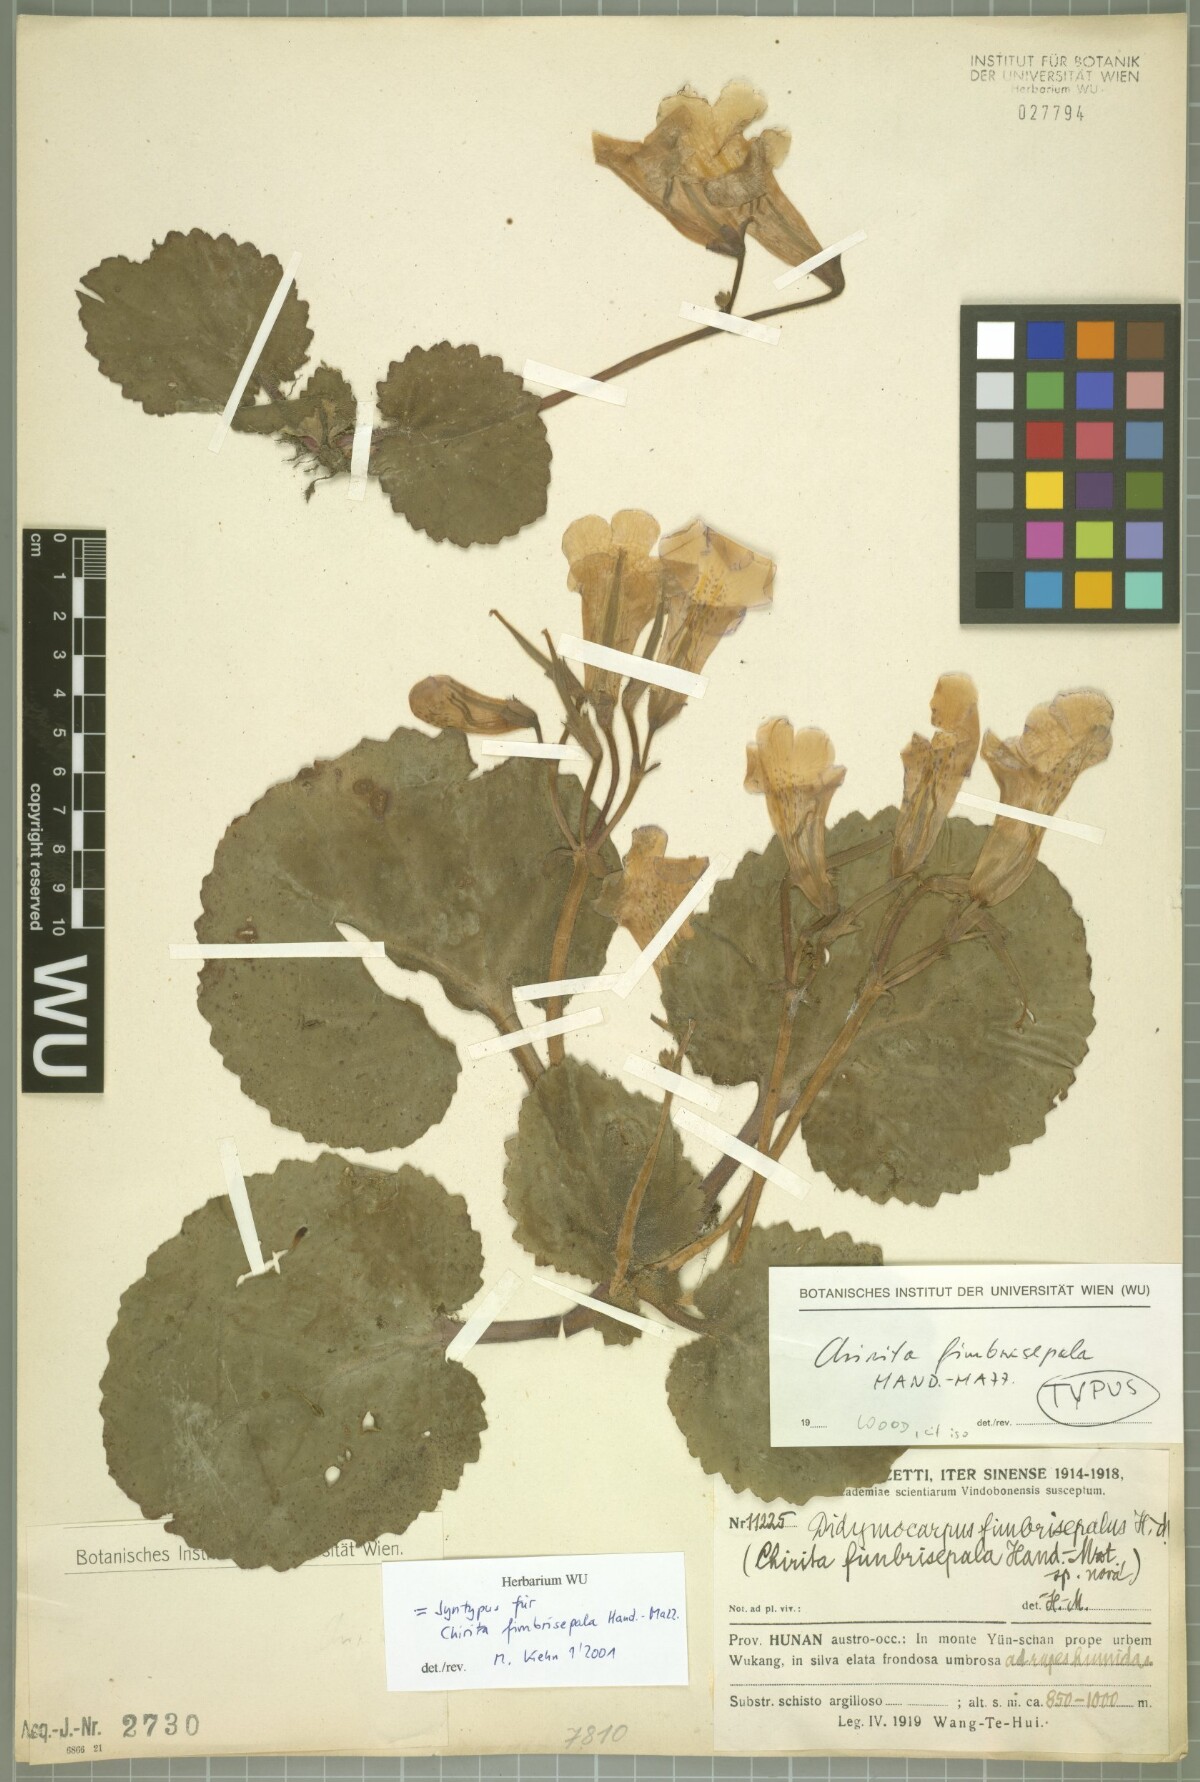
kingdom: Plantae
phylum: Tracheophyta
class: Magnoliopsida
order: Lamiales
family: Gesneriaceae
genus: Primulina
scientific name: Primulina fimbrisepala
